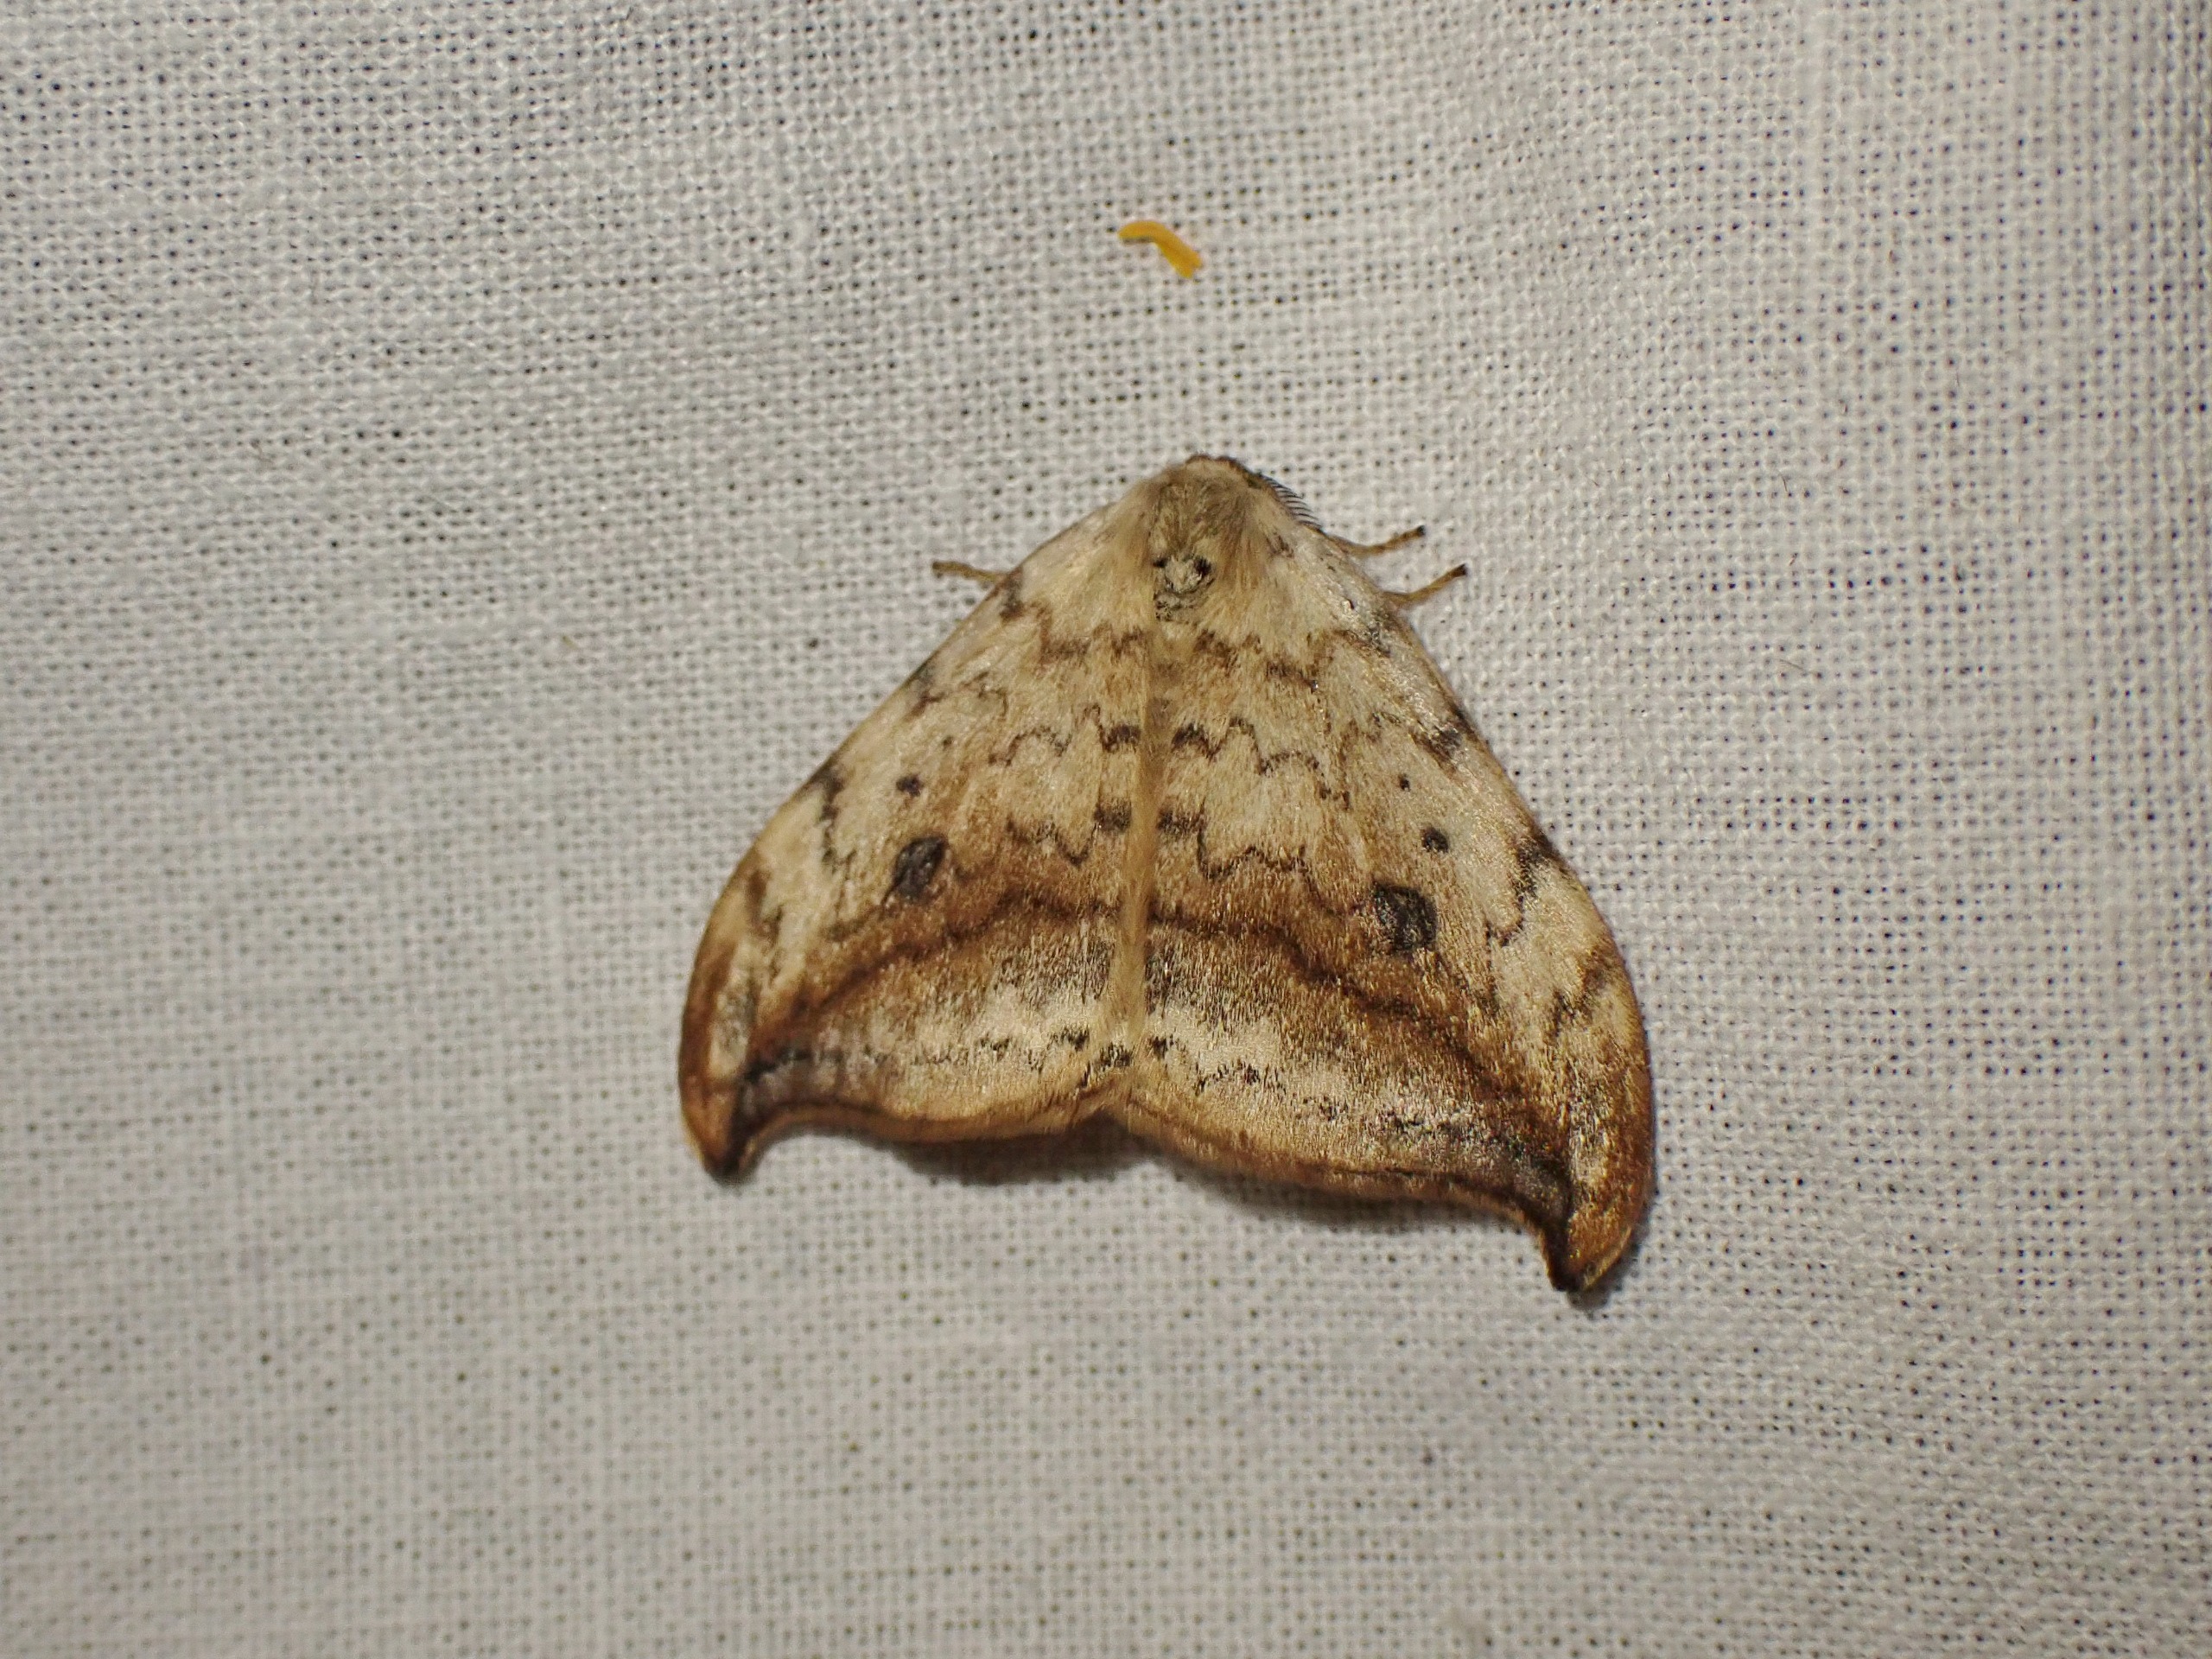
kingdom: Animalia
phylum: Arthropoda
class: Insecta
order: Lepidoptera
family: Drepanidae
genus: Drepana
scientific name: Drepana falcataria
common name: Birkeseglvinge
